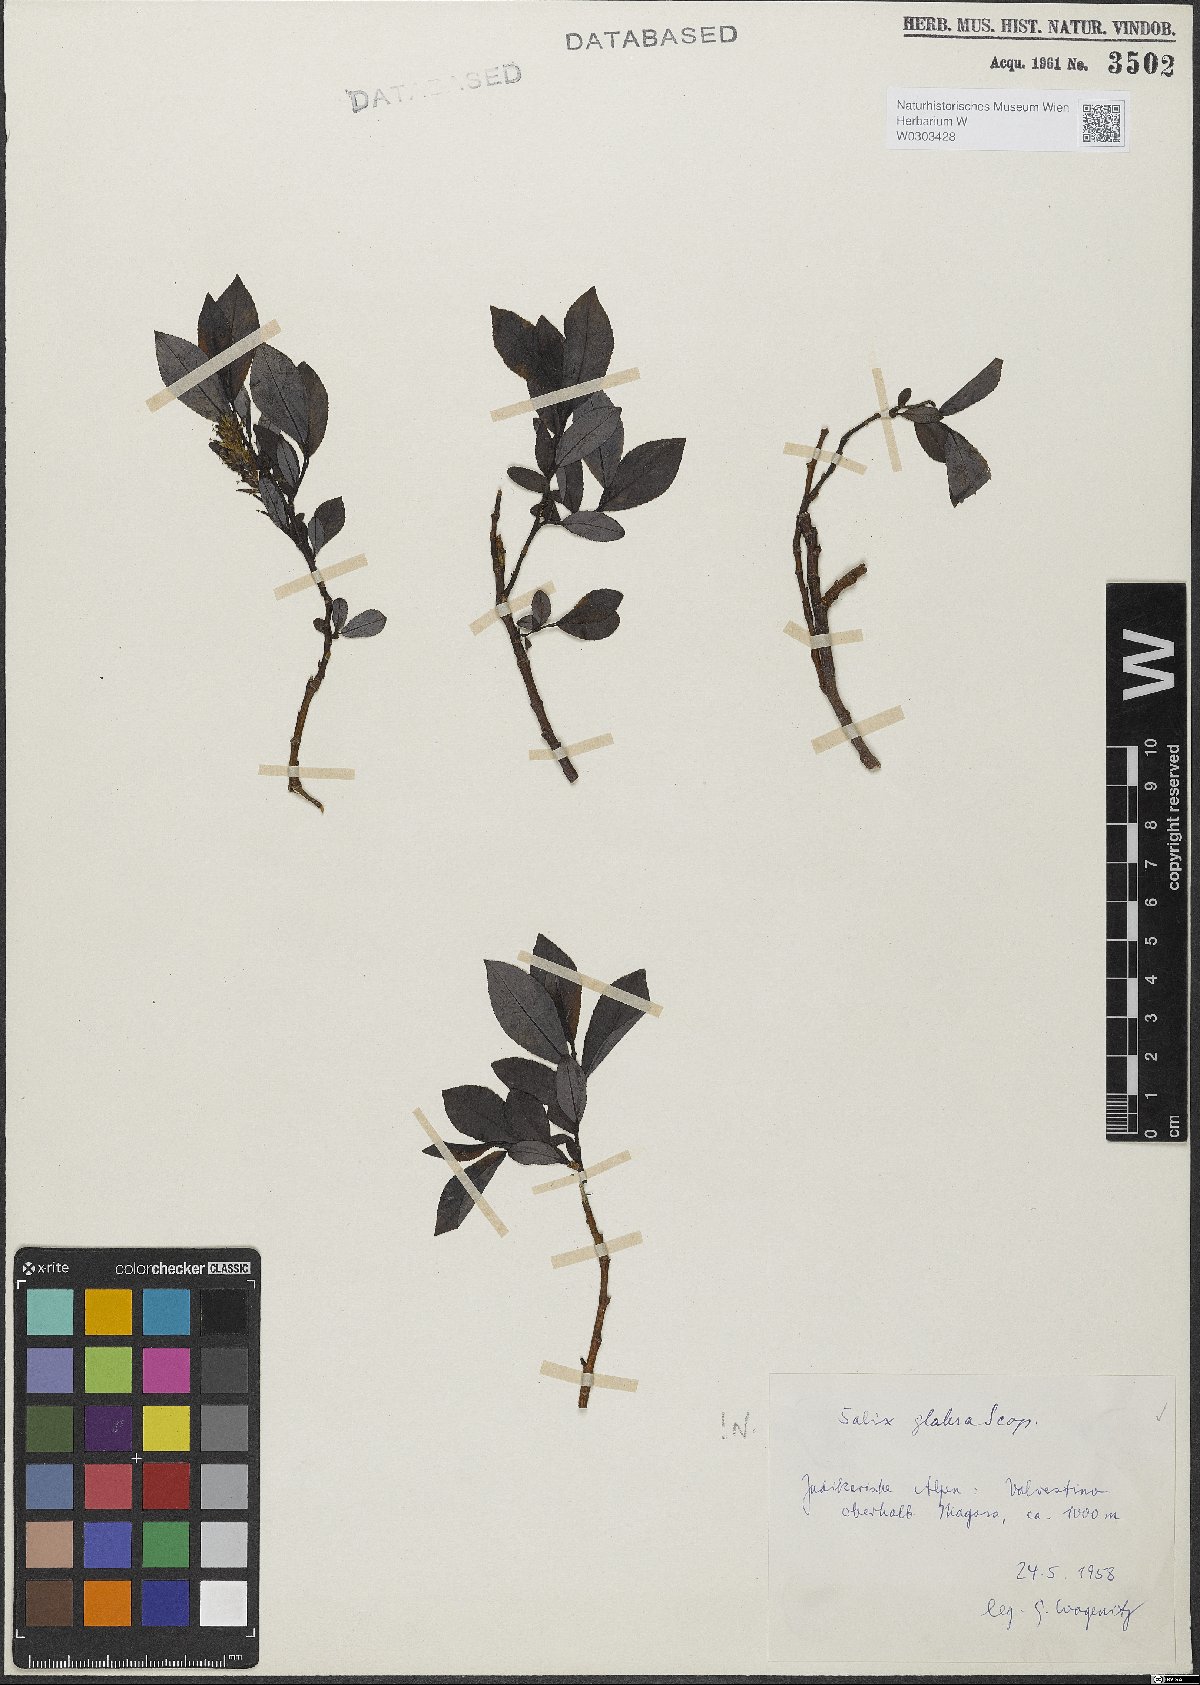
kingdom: Plantae
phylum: Tracheophyta
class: Magnoliopsida
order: Malpighiales
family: Salicaceae
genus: Salix
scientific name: Salix glabra
